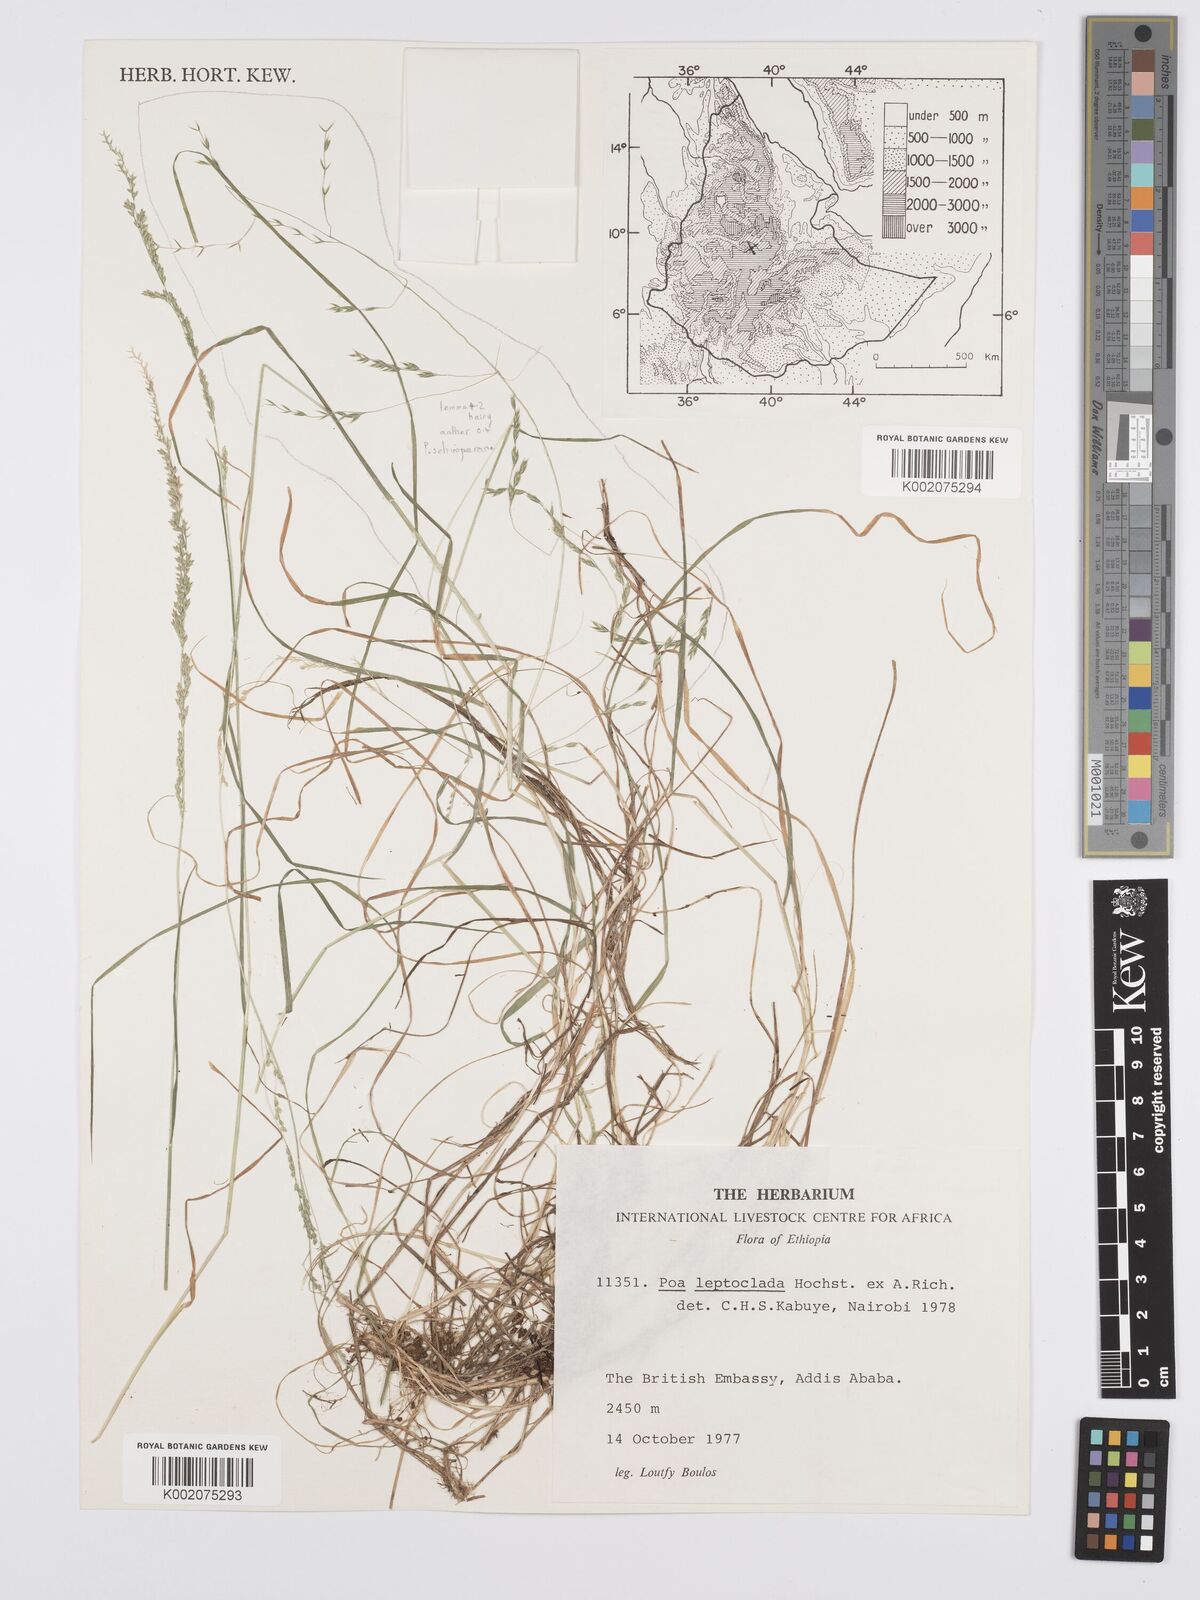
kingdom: Plantae
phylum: Tracheophyta
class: Liliopsida
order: Poales
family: Poaceae
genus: Poa
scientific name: Poa leptoclada
